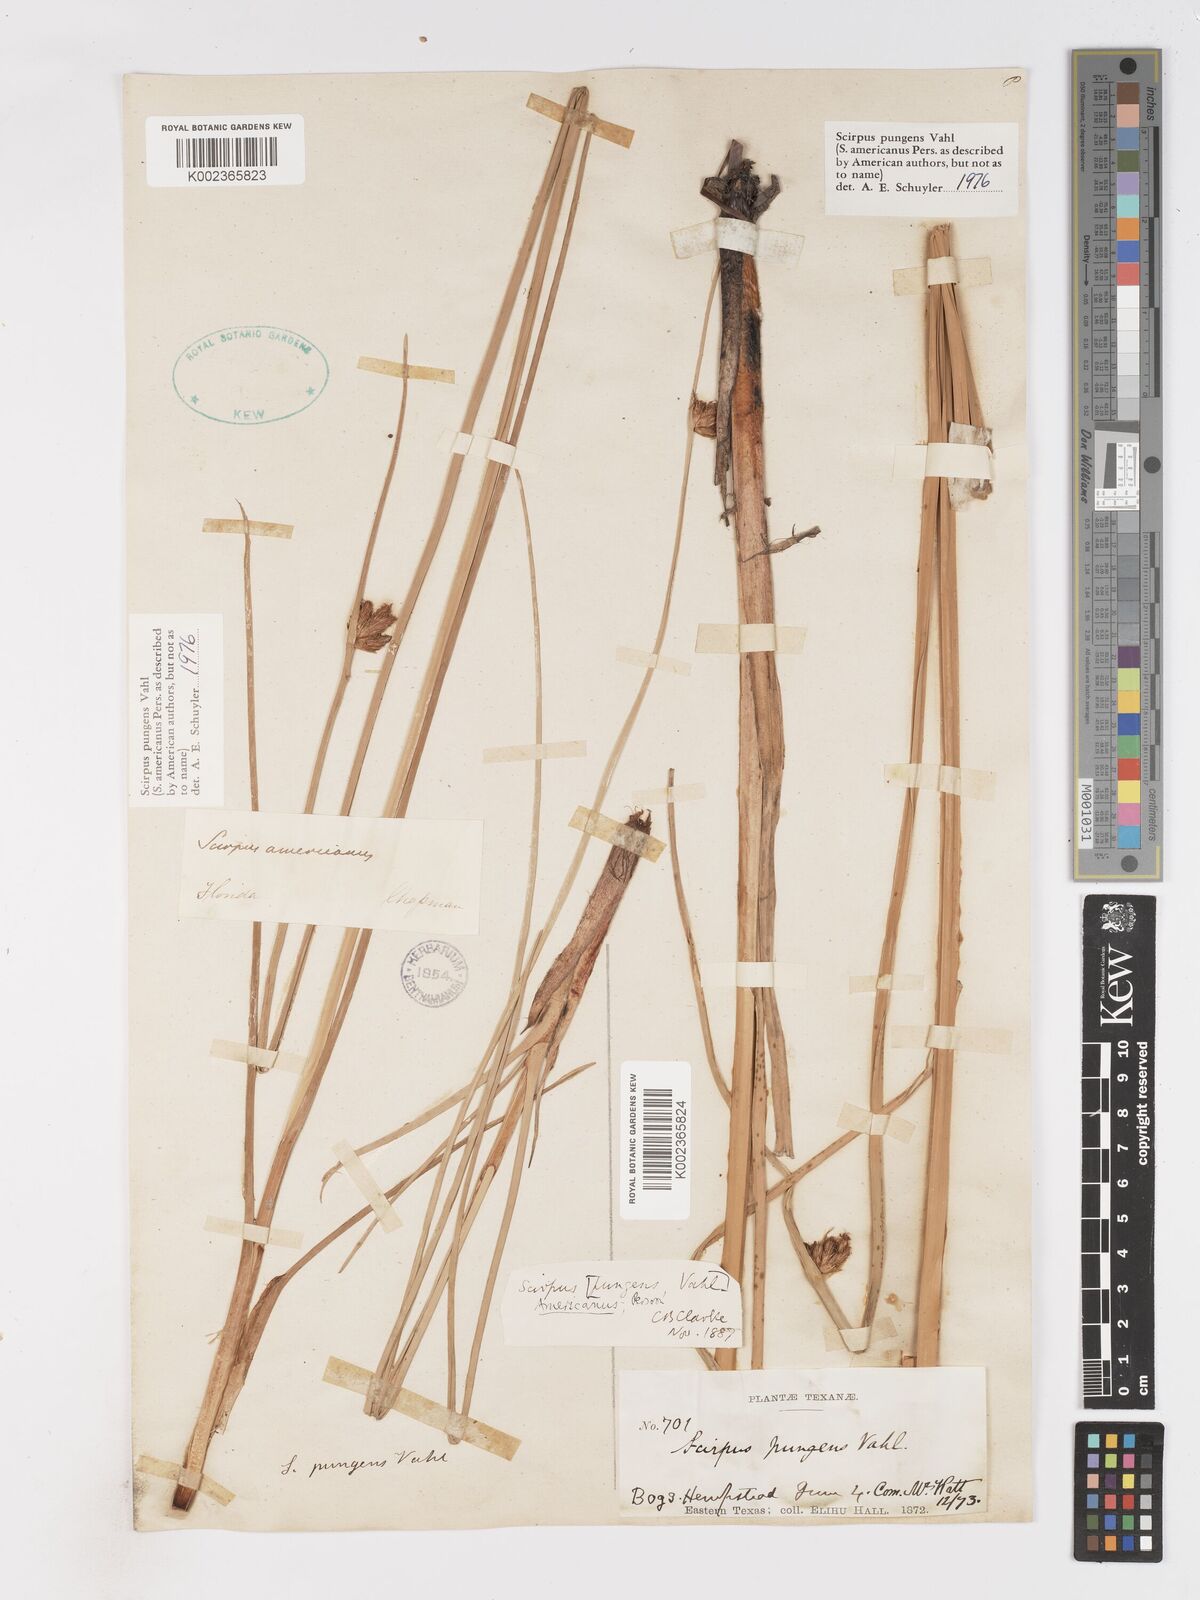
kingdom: Plantae
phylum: Tracheophyta
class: Liliopsida
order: Poales
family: Cyperaceae
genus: Schoenoplectus
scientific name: Schoenoplectus pungens
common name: Sharp club-rush
